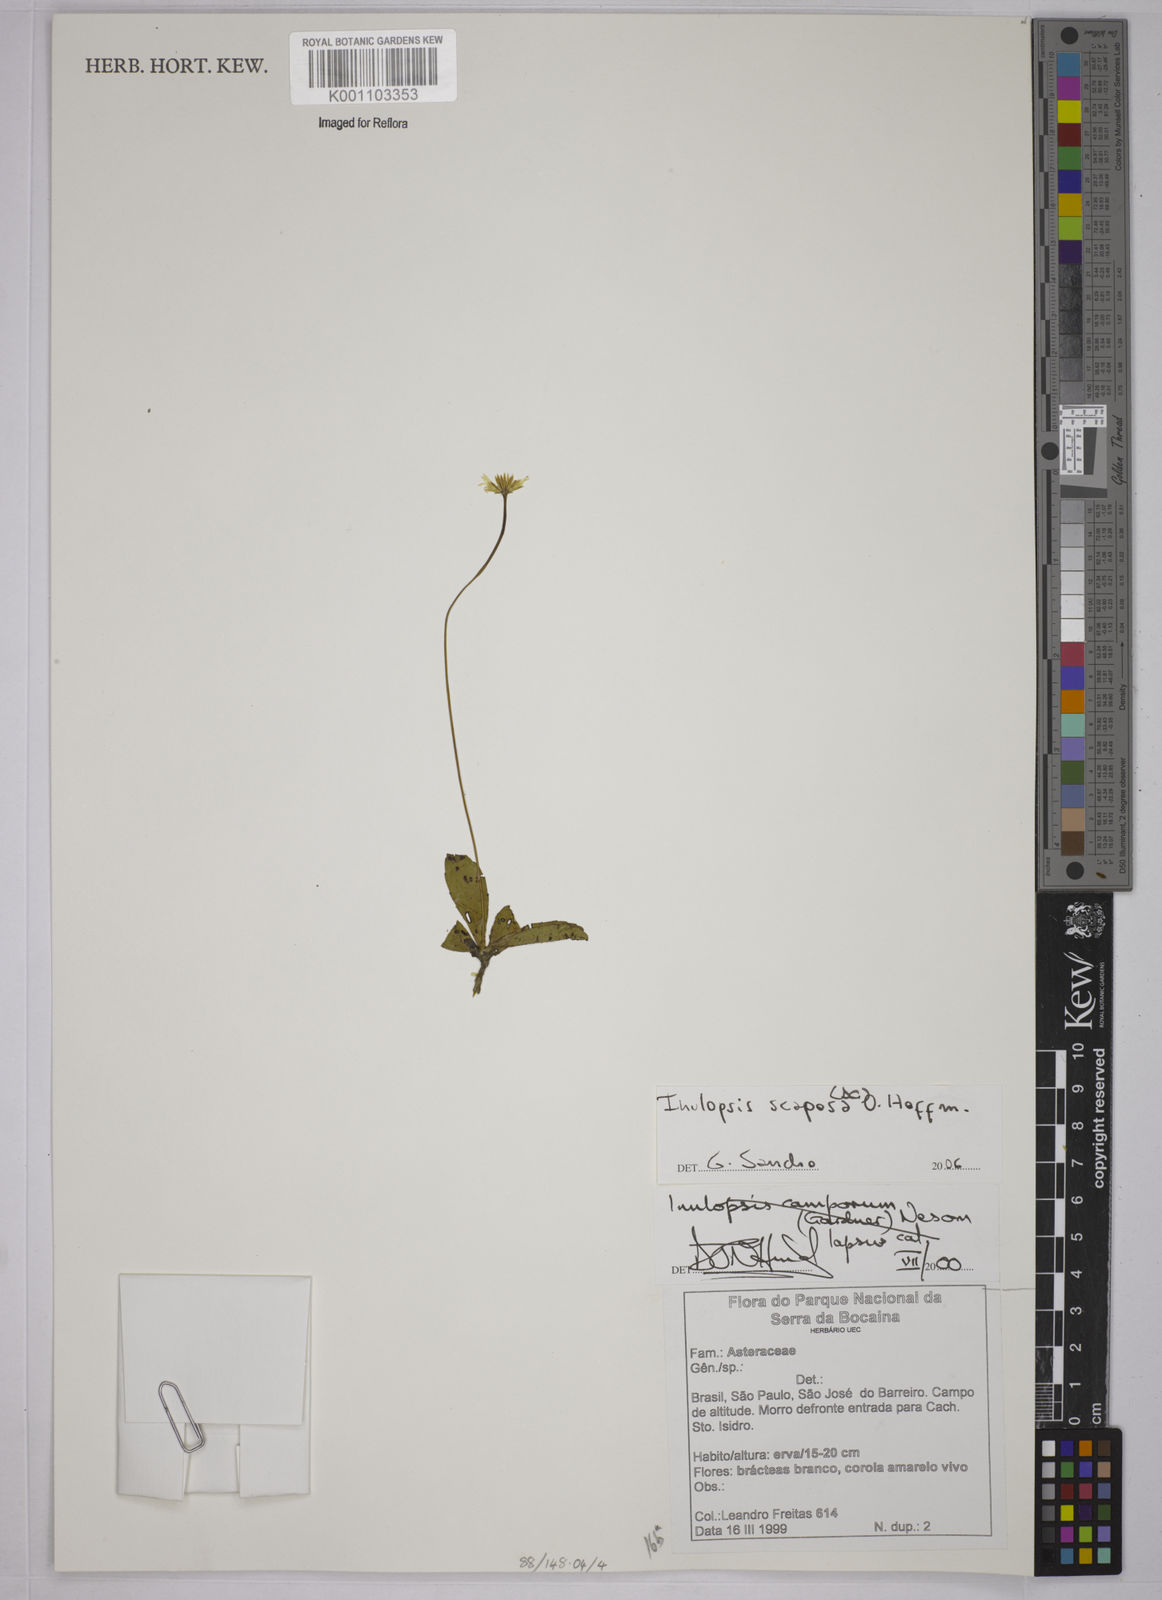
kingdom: Plantae
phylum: Tracheophyta
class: Magnoliopsida
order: Asterales
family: Asteraceae
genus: Inulopsis
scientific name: Inulopsis scaposa
